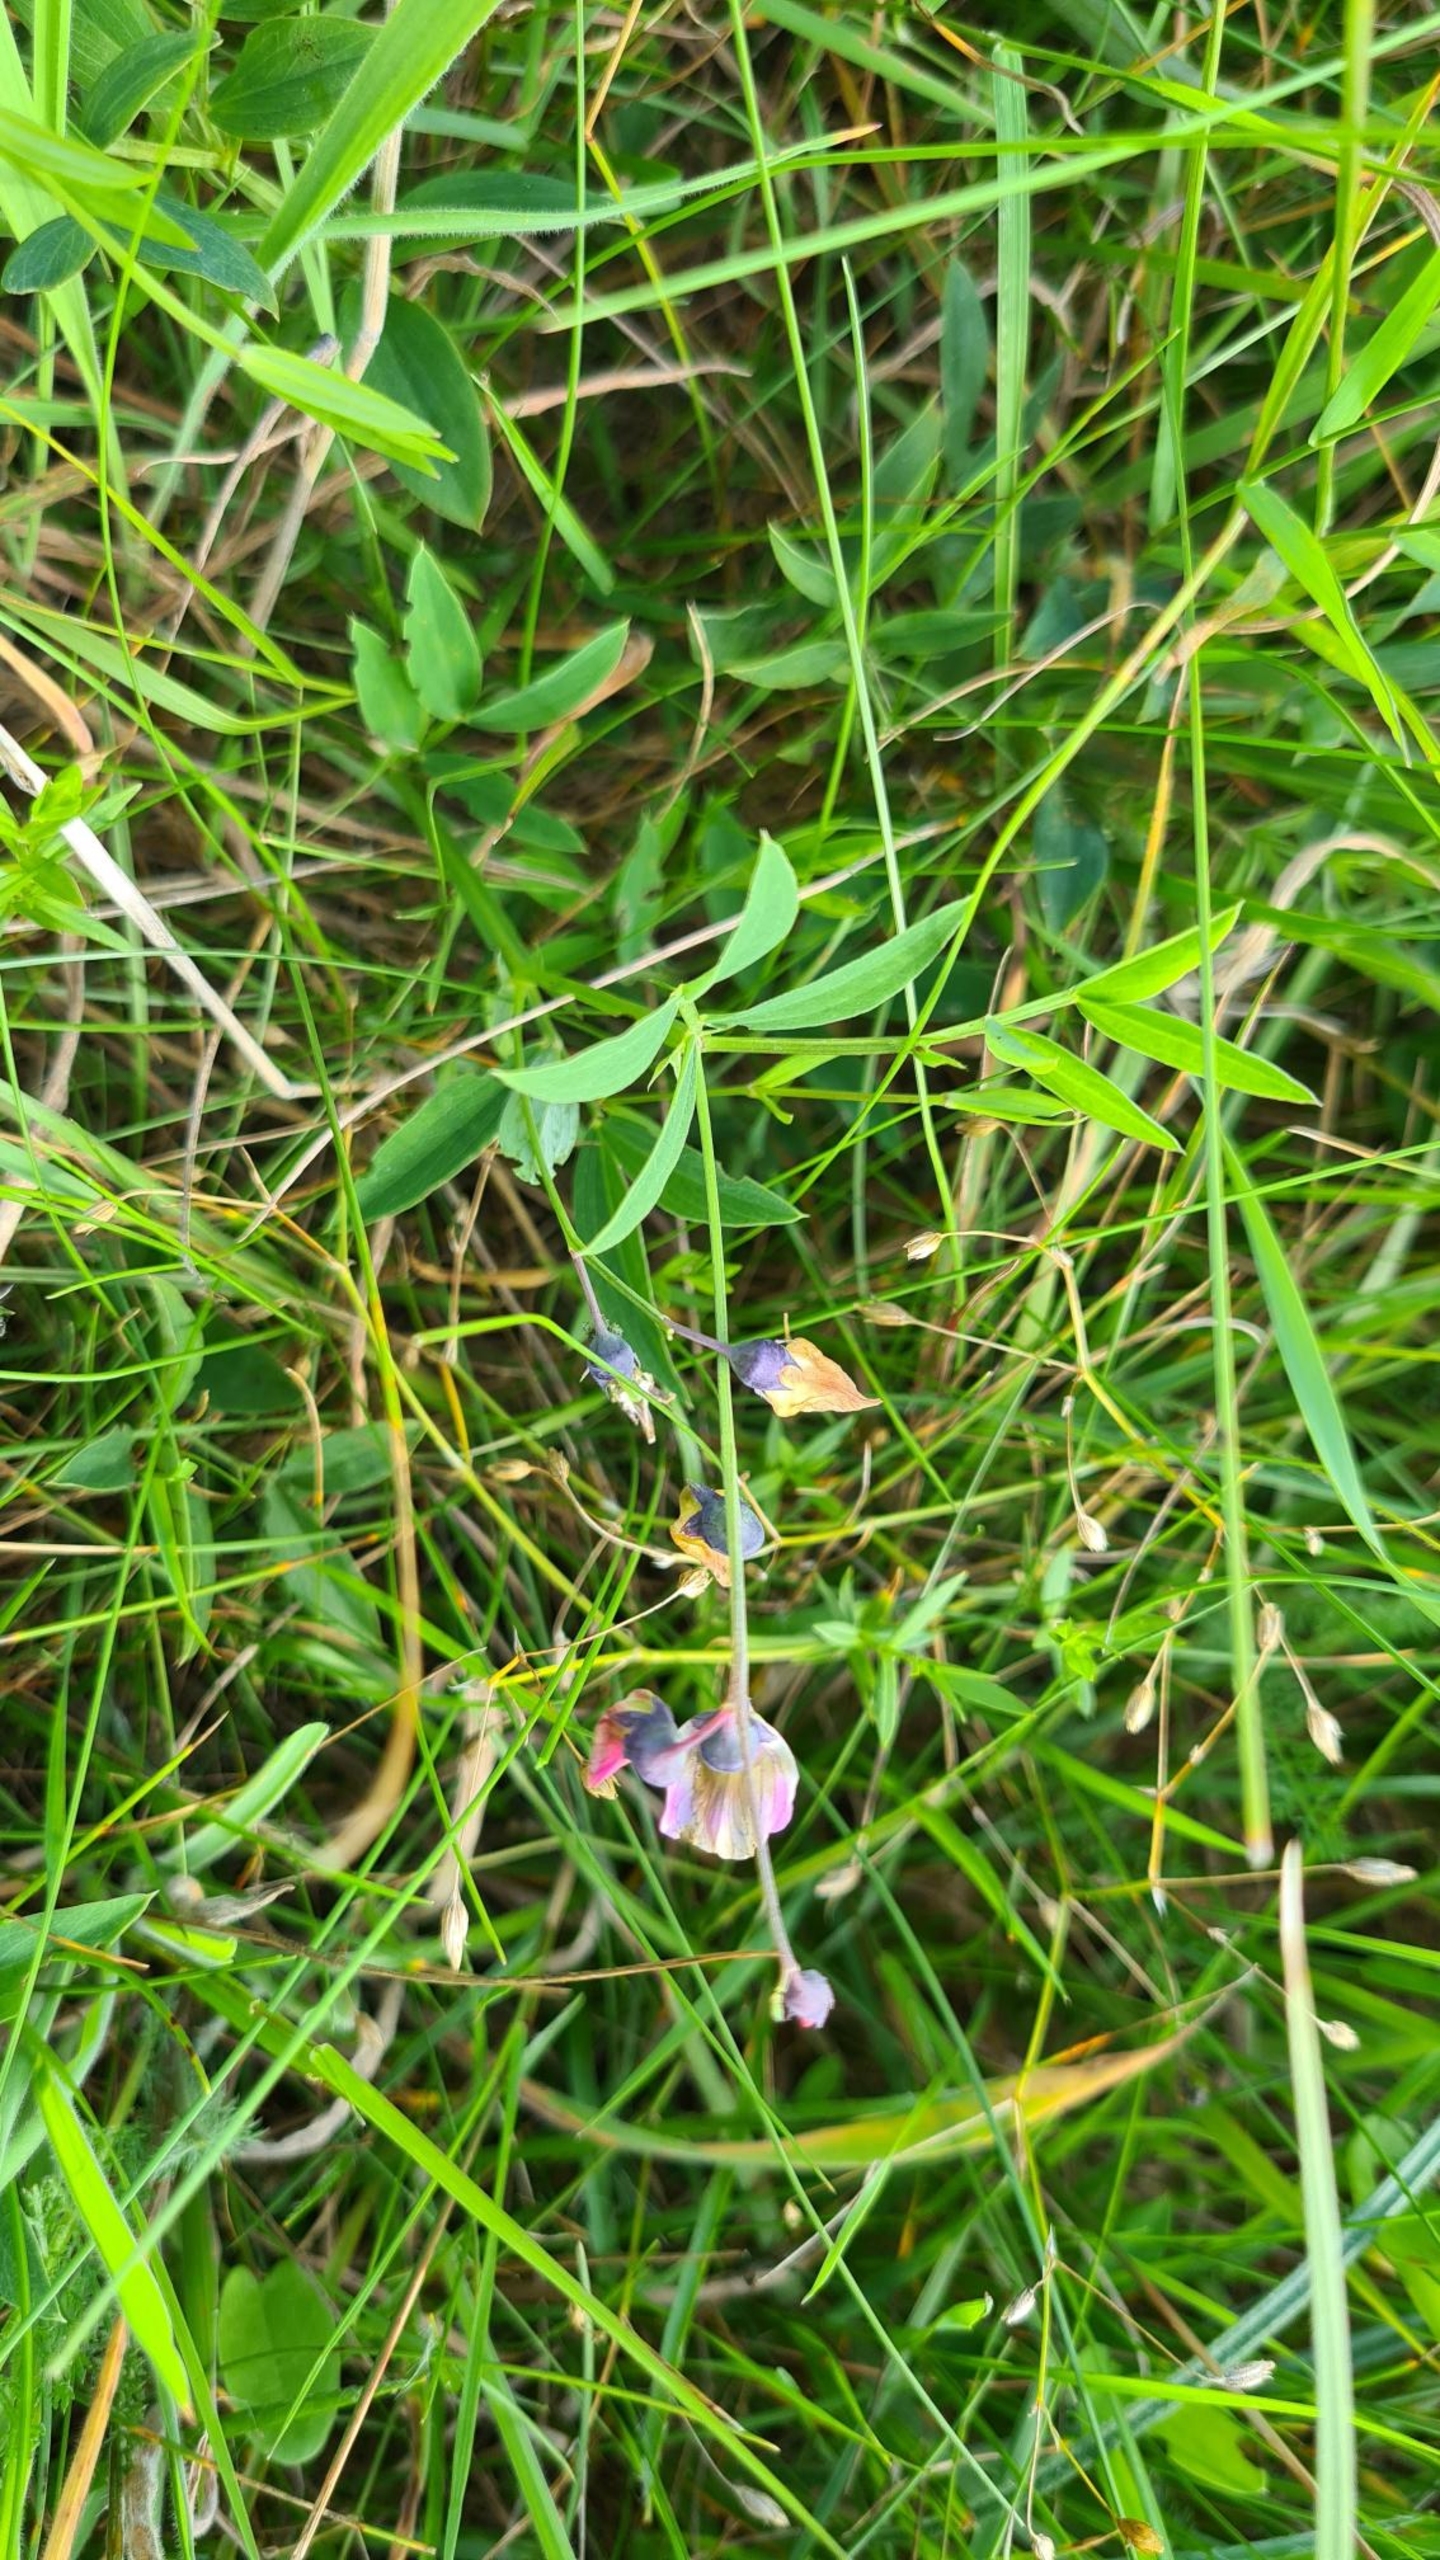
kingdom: Plantae
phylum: Tracheophyta
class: Magnoliopsida
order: Fabales
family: Fabaceae
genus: Lathyrus
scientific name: Lathyrus linifolius
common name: Krat-fladbælg
